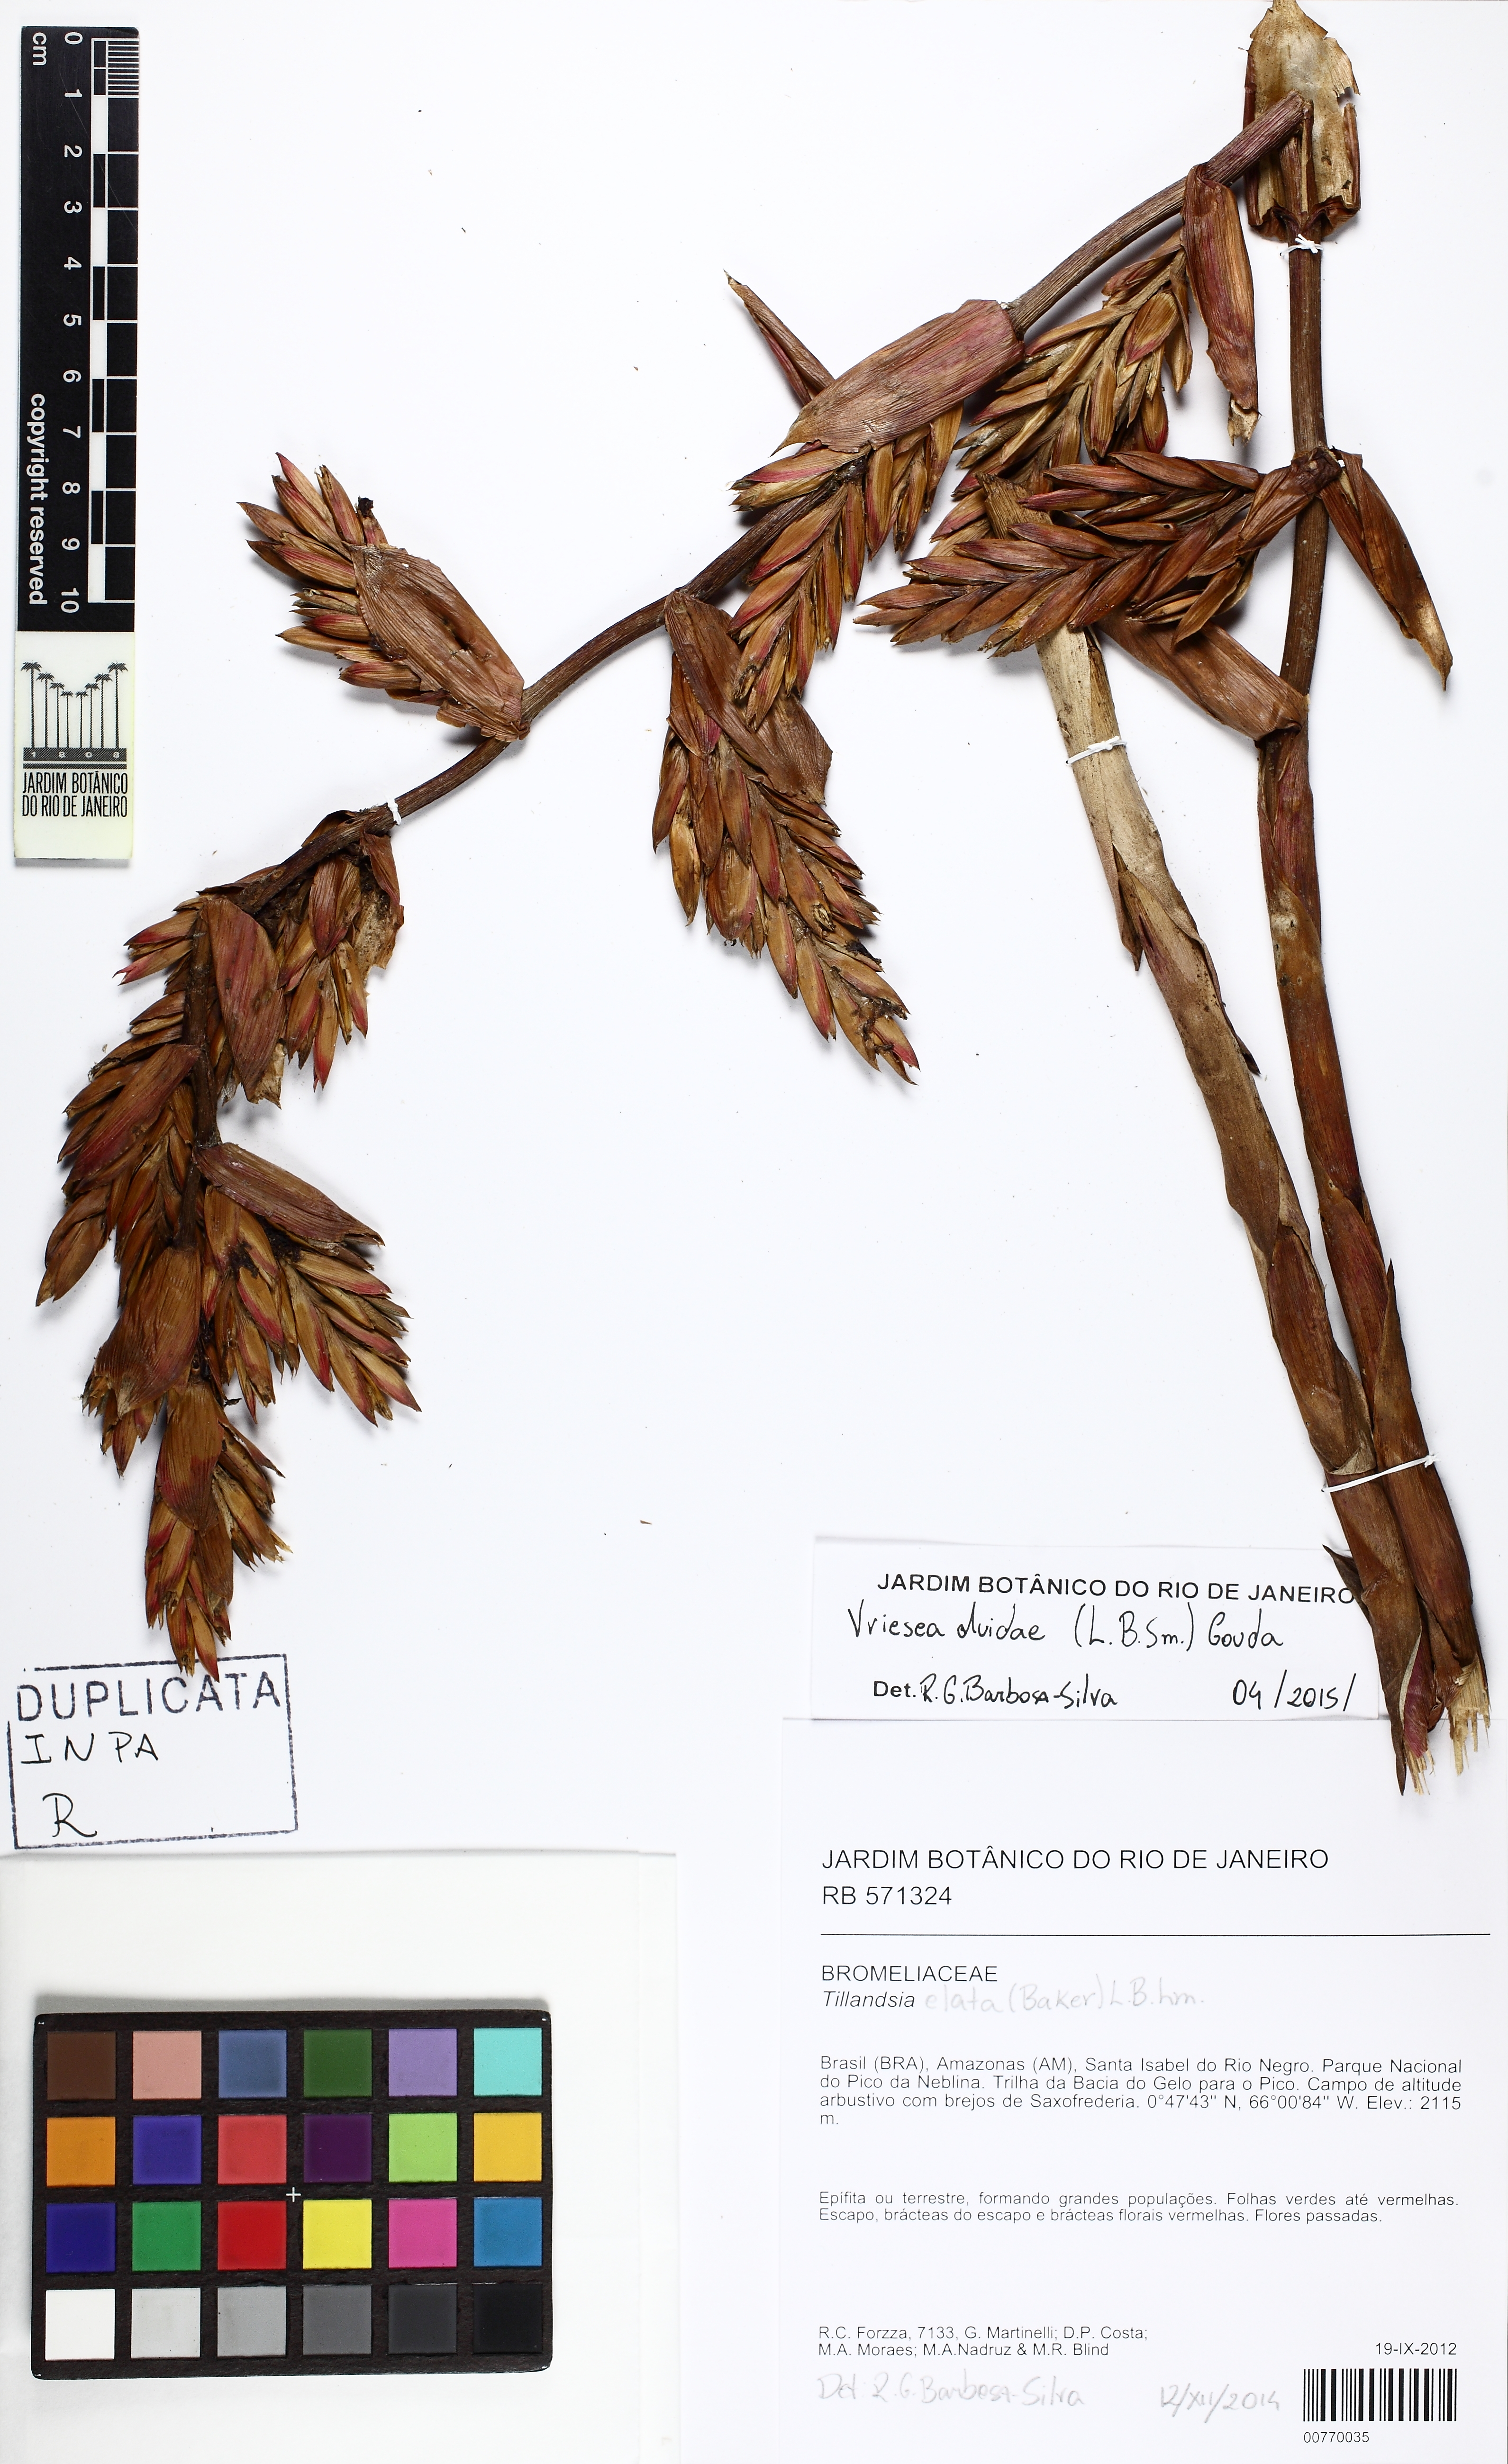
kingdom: Plantae
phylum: Tracheophyta
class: Liliopsida
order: Poales
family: Bromeliaceae
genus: Vriesea
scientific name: Vriesea duidae
